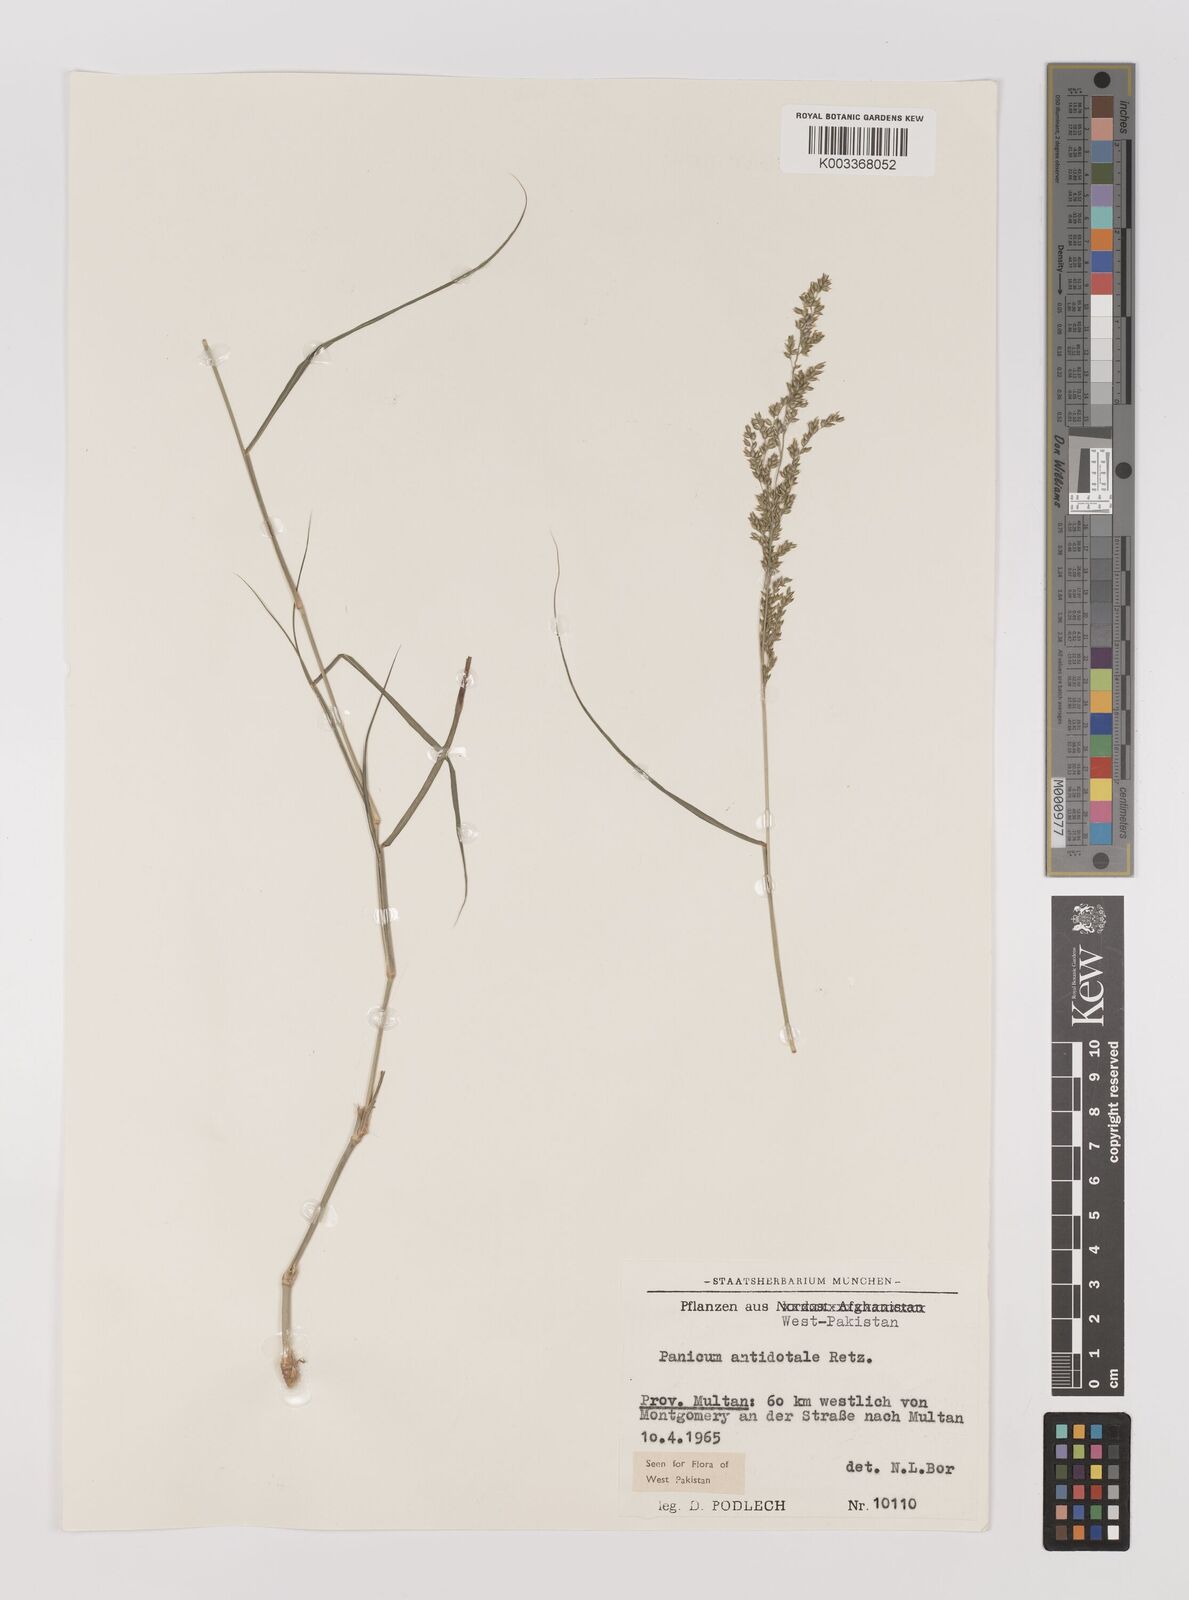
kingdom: Plantae
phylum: Tracheophyta
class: Liliopsida
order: Poales
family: Poaceae
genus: Panicum
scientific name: Panicum antidotale
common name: Blue panicum
